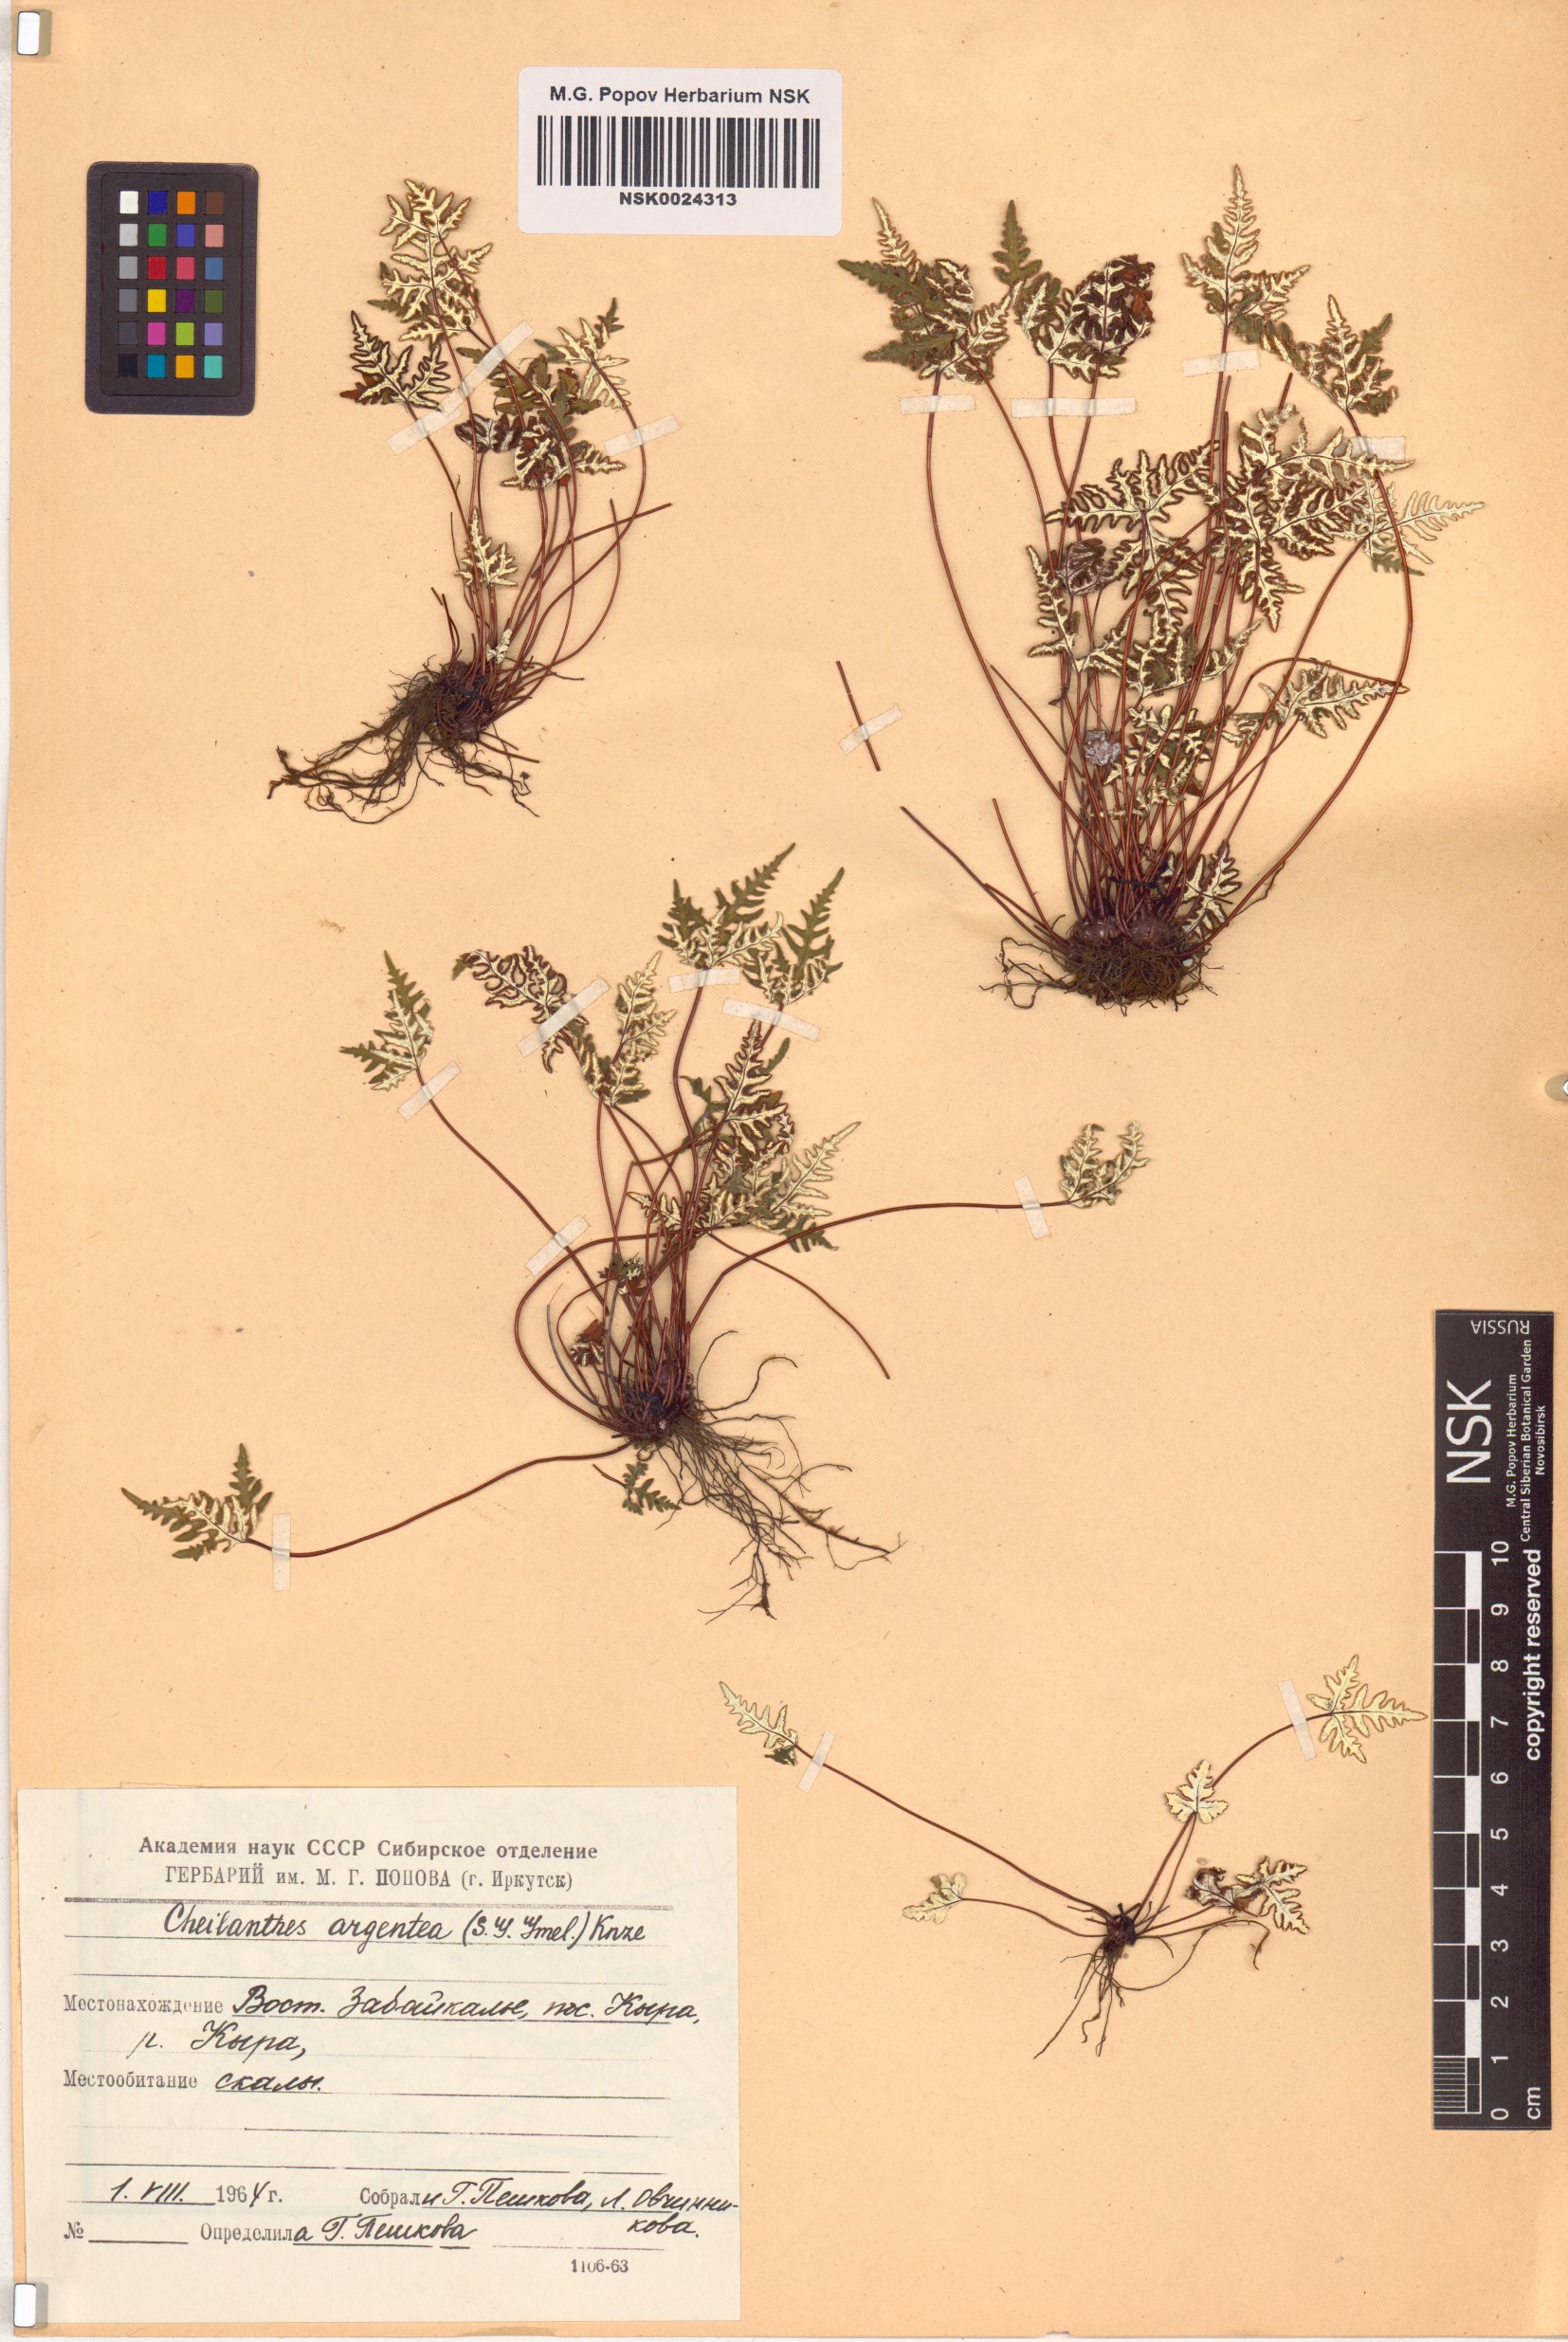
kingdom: Plantae
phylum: Tracheophyta
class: Polypodiopsida
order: Polypodiales
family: Pteridaceae
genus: Aleuritopteris
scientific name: Aleuritopteris argentea
